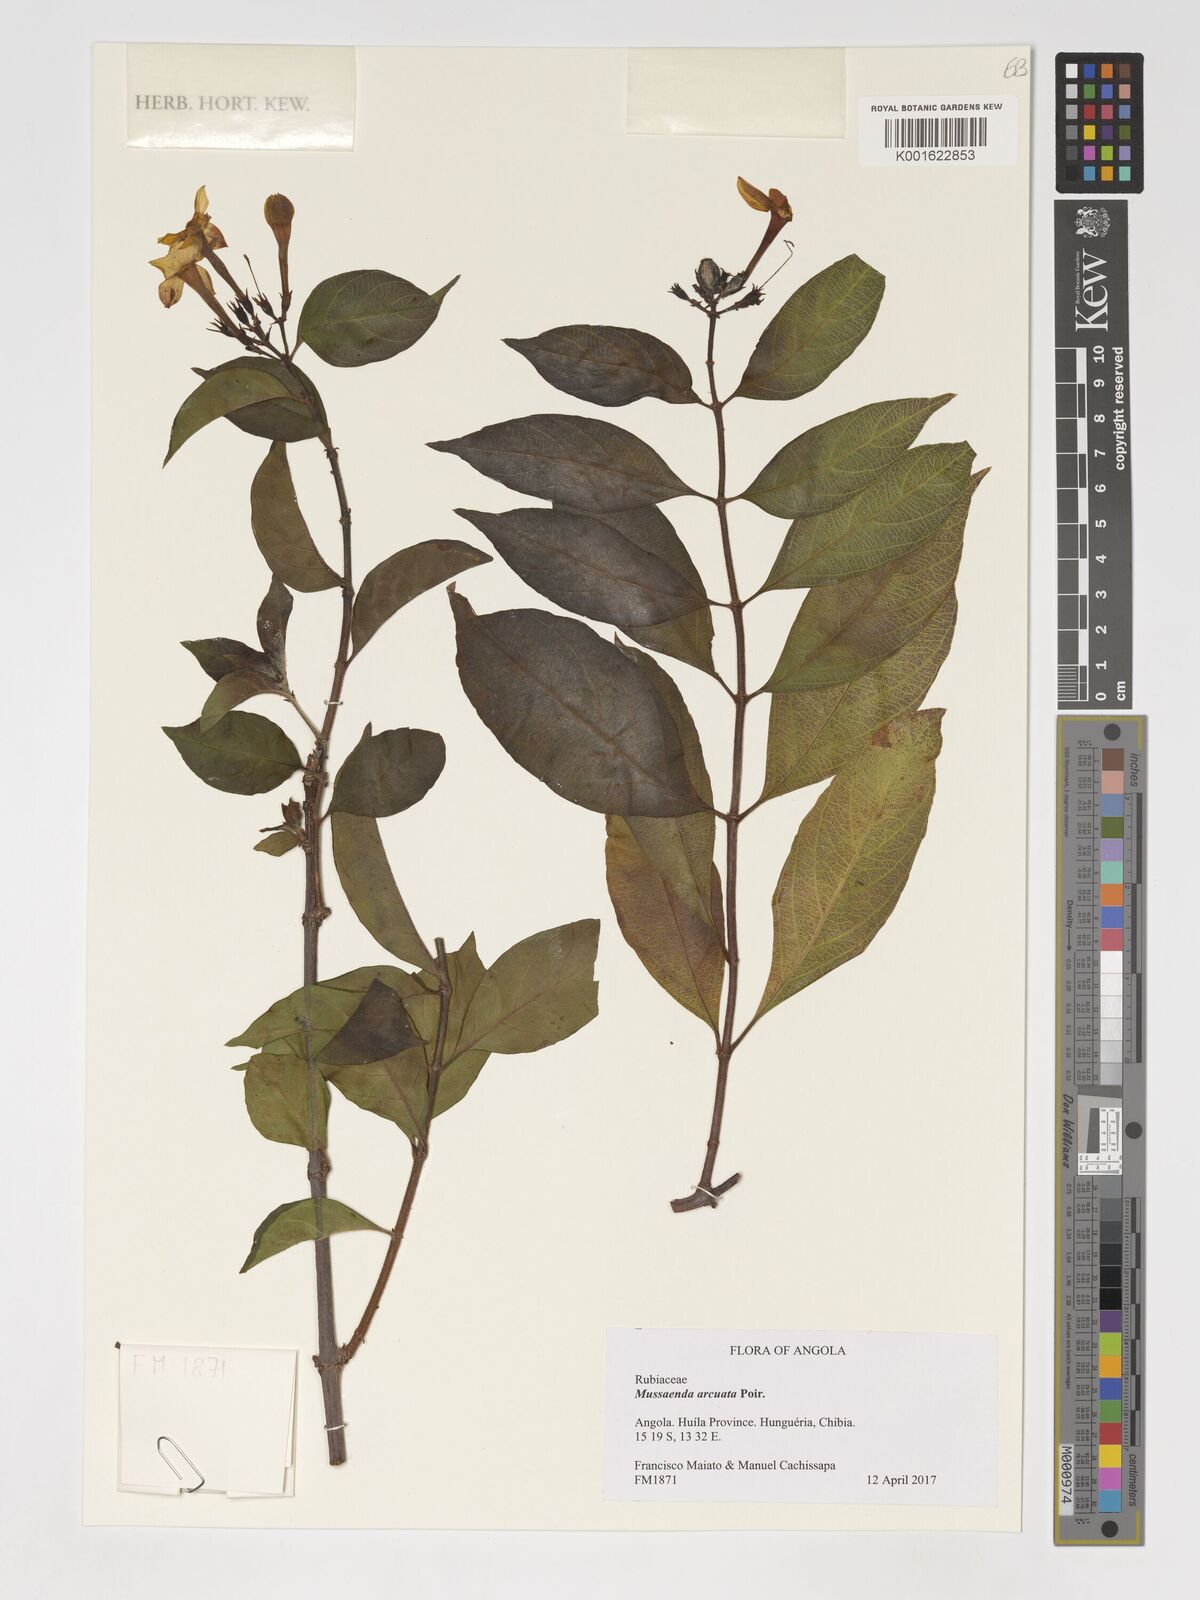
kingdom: Plantae
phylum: Tracheophyta
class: Magnoliopsida
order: Gentianales
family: Rubiaceae
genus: Mussaenda
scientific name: Mussaenda arcuata
